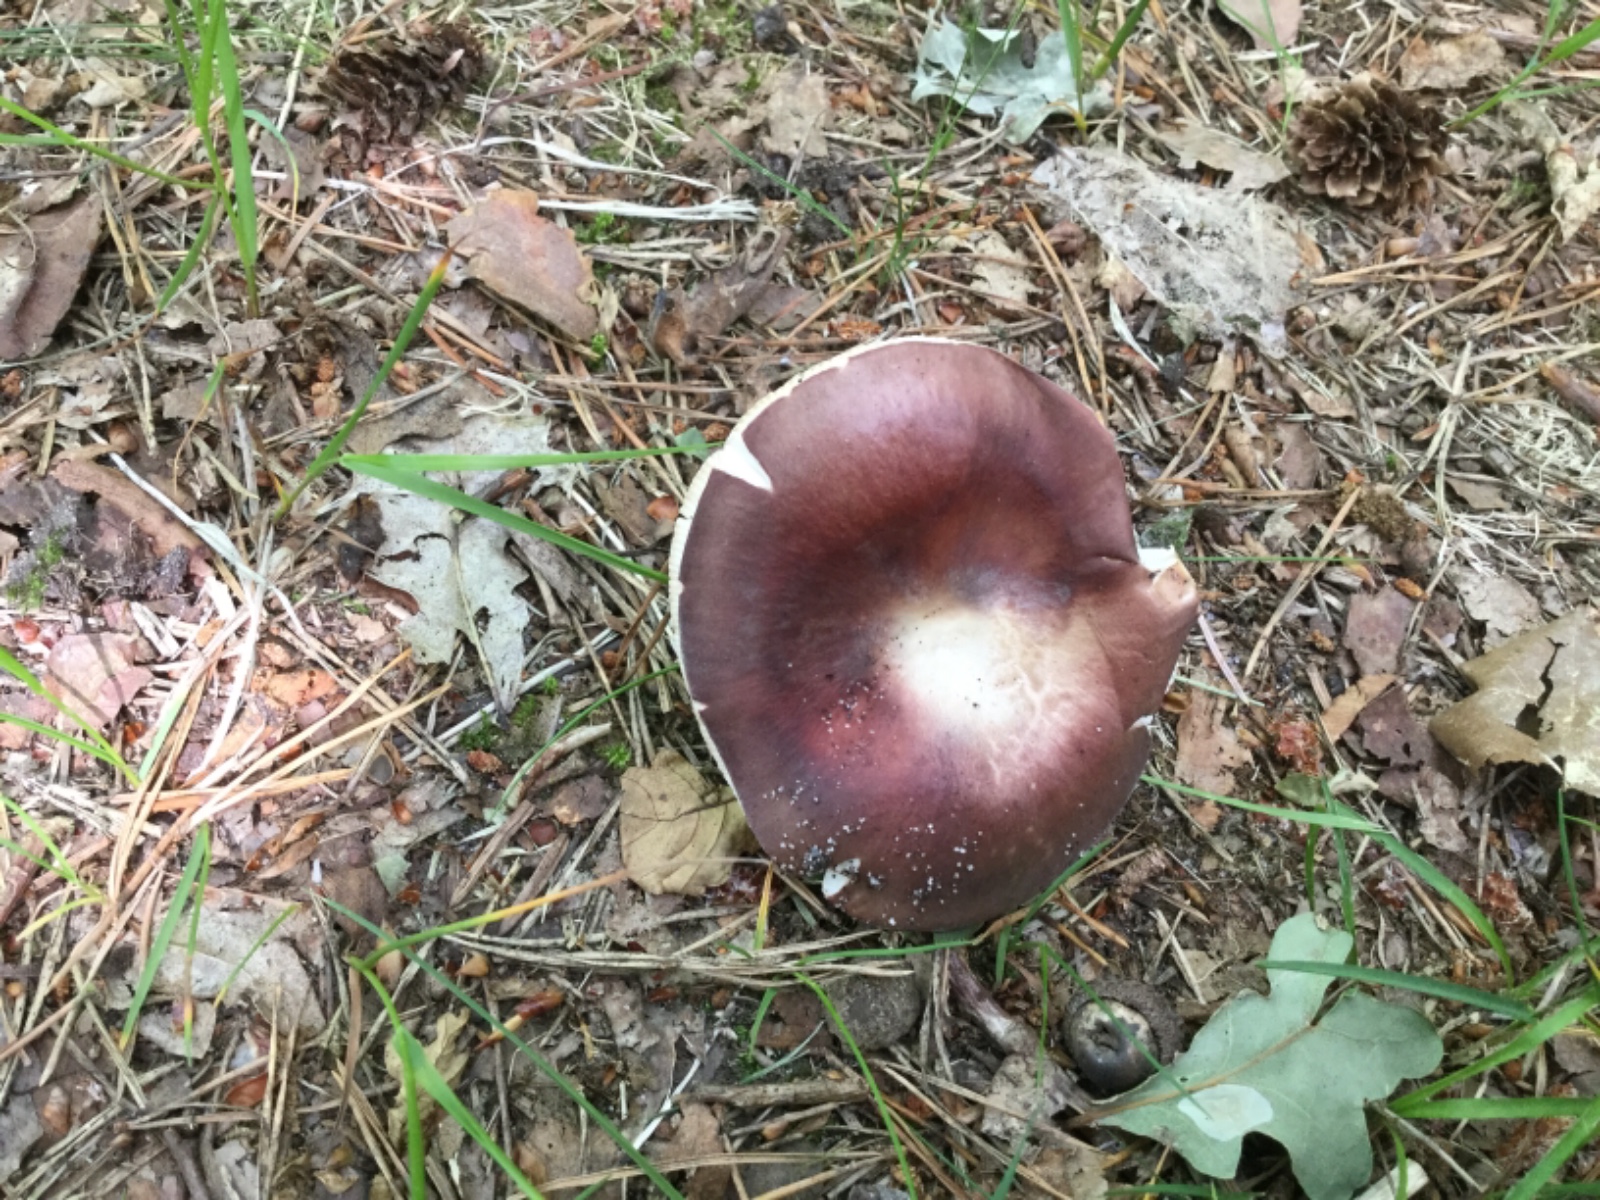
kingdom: Fungi
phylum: Basidiomycota
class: Agaricomycetes
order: Russulales
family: Russulaceae
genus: Russula
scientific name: Russula vesca
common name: spiselig skørhat
